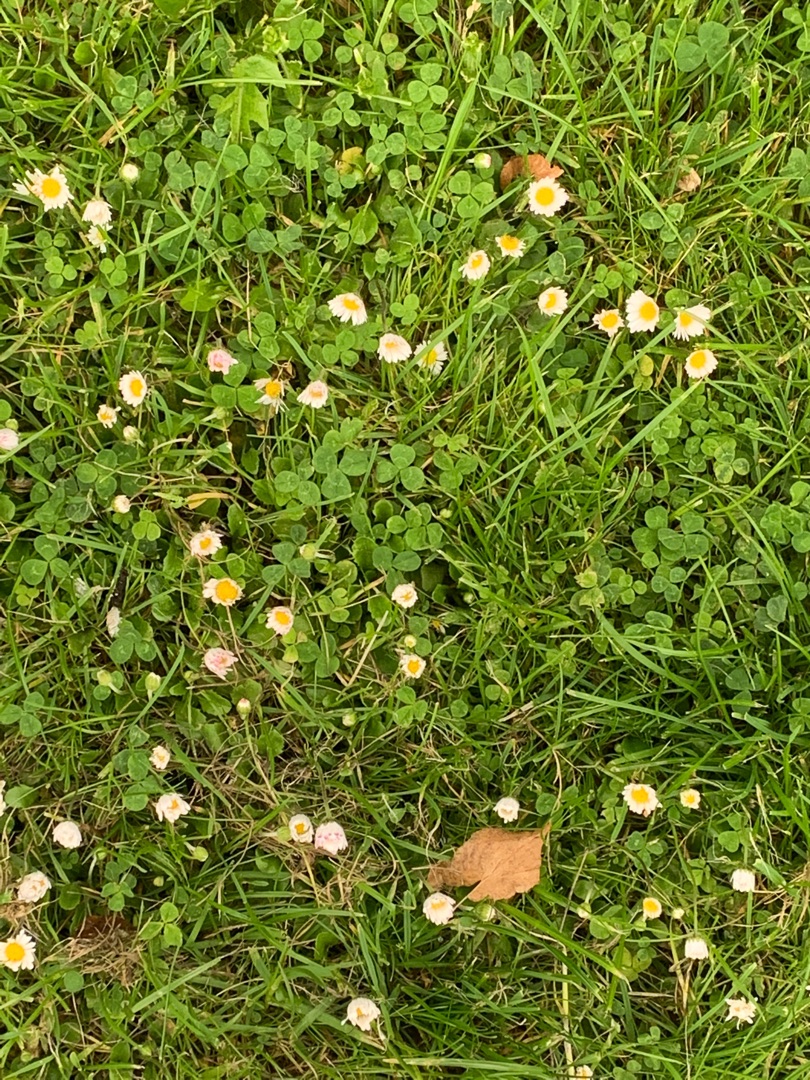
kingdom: Plantae
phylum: Tracheophyta
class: Magnoliopsida
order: Asterales
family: Asteraceae
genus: Bellis
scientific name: Bellis perennis
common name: Tusindfryd
